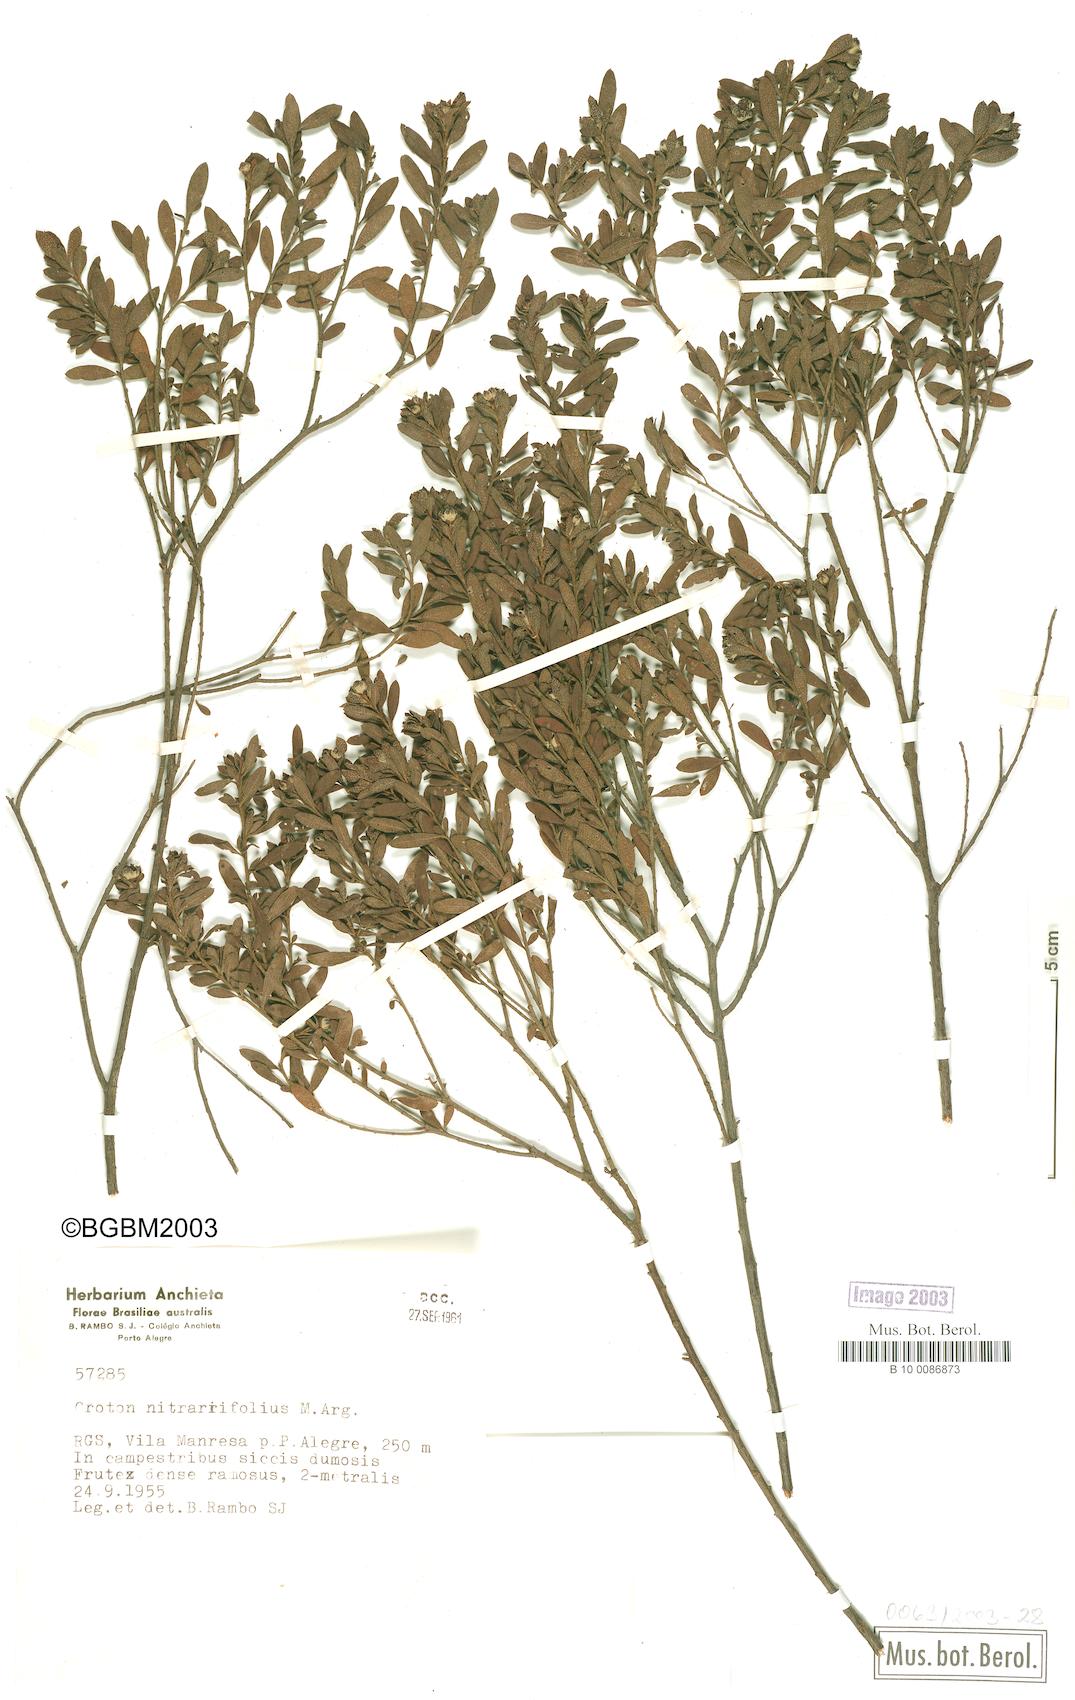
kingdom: Plantae
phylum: Tracheophyta
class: Magnoliopsida
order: Malpighiales
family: Euphorbiaceae
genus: Croton
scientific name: Croton nitrariifolius
